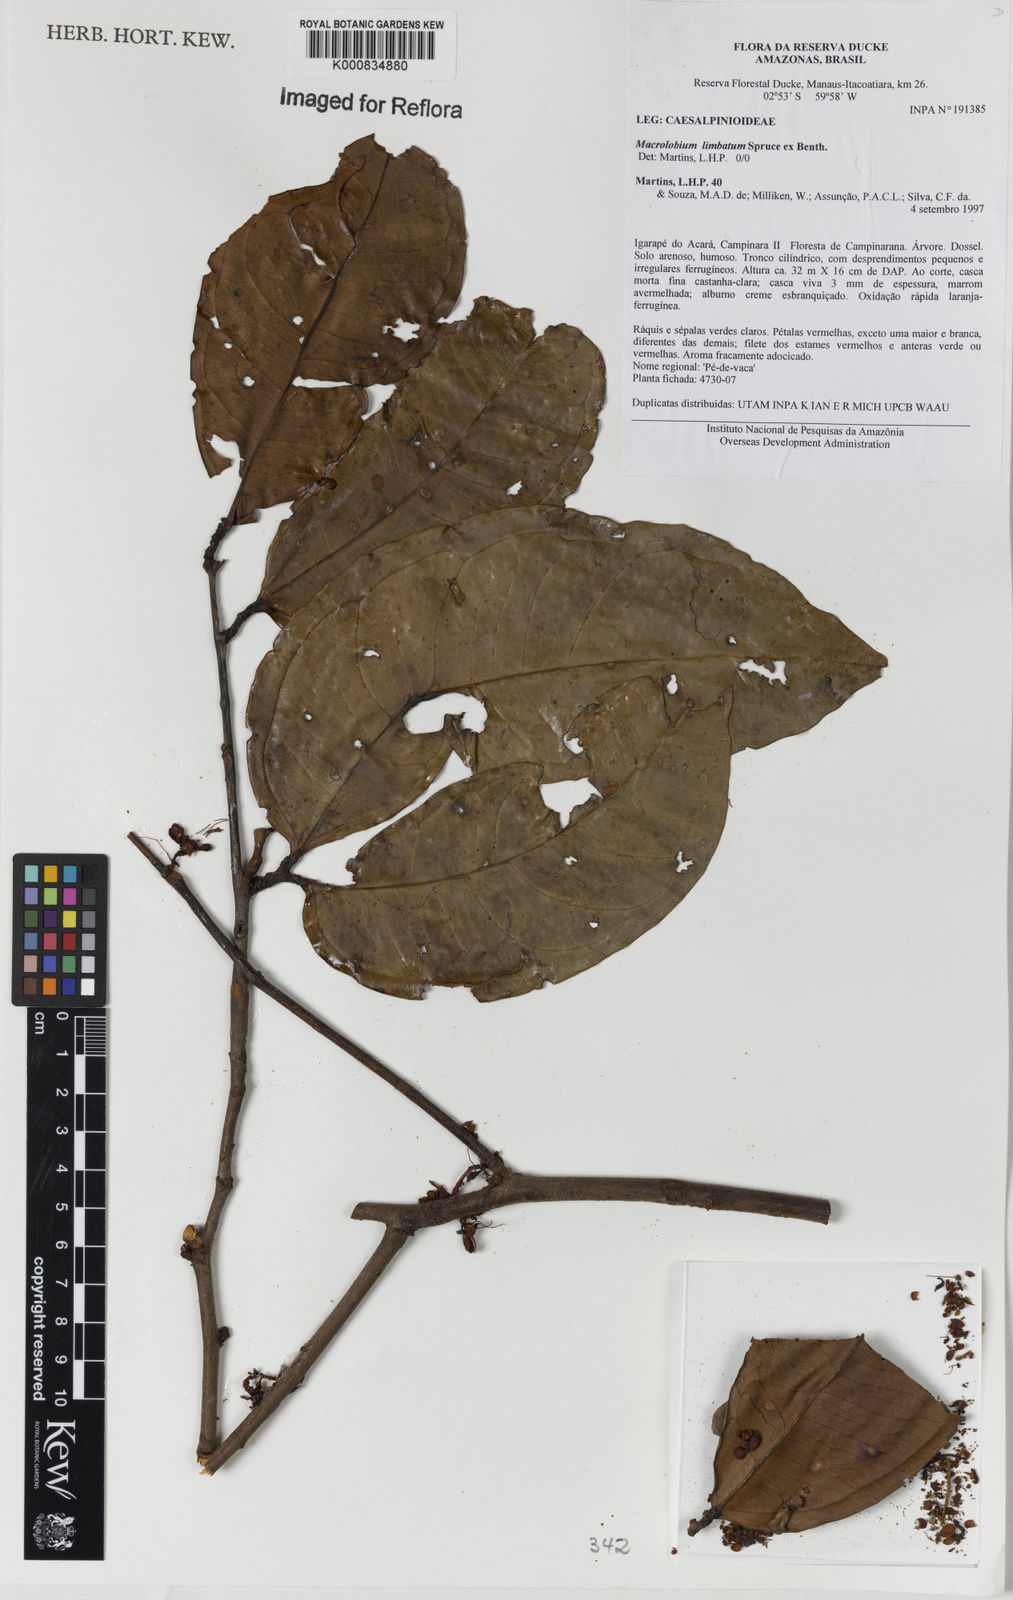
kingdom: Plantae
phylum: Tracheophyta
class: Magnoliopsida
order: Fabales
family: Fabaceae
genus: Macrolobium
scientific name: Macrolobium limbatum
